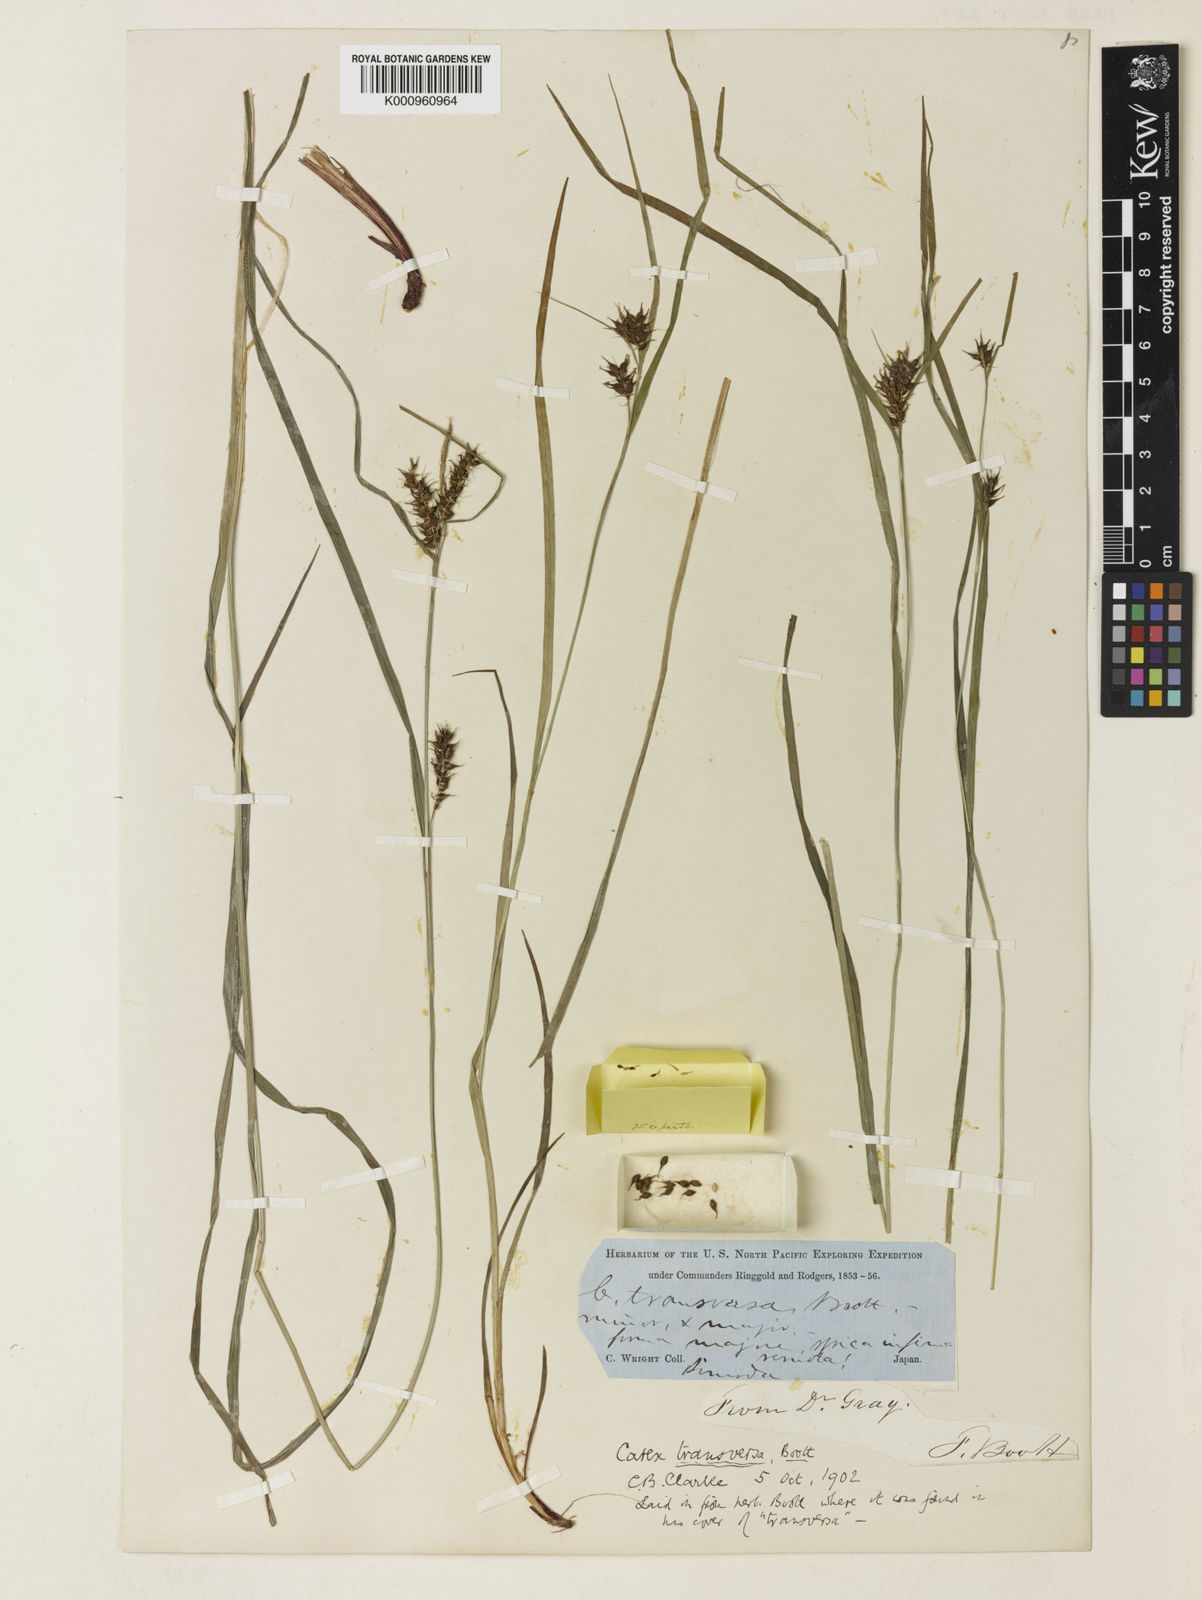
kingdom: Plantae
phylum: Tracheophyta
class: Liliopsida
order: Poales
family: Cyperaceae
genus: Carex
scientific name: Carex brownii
